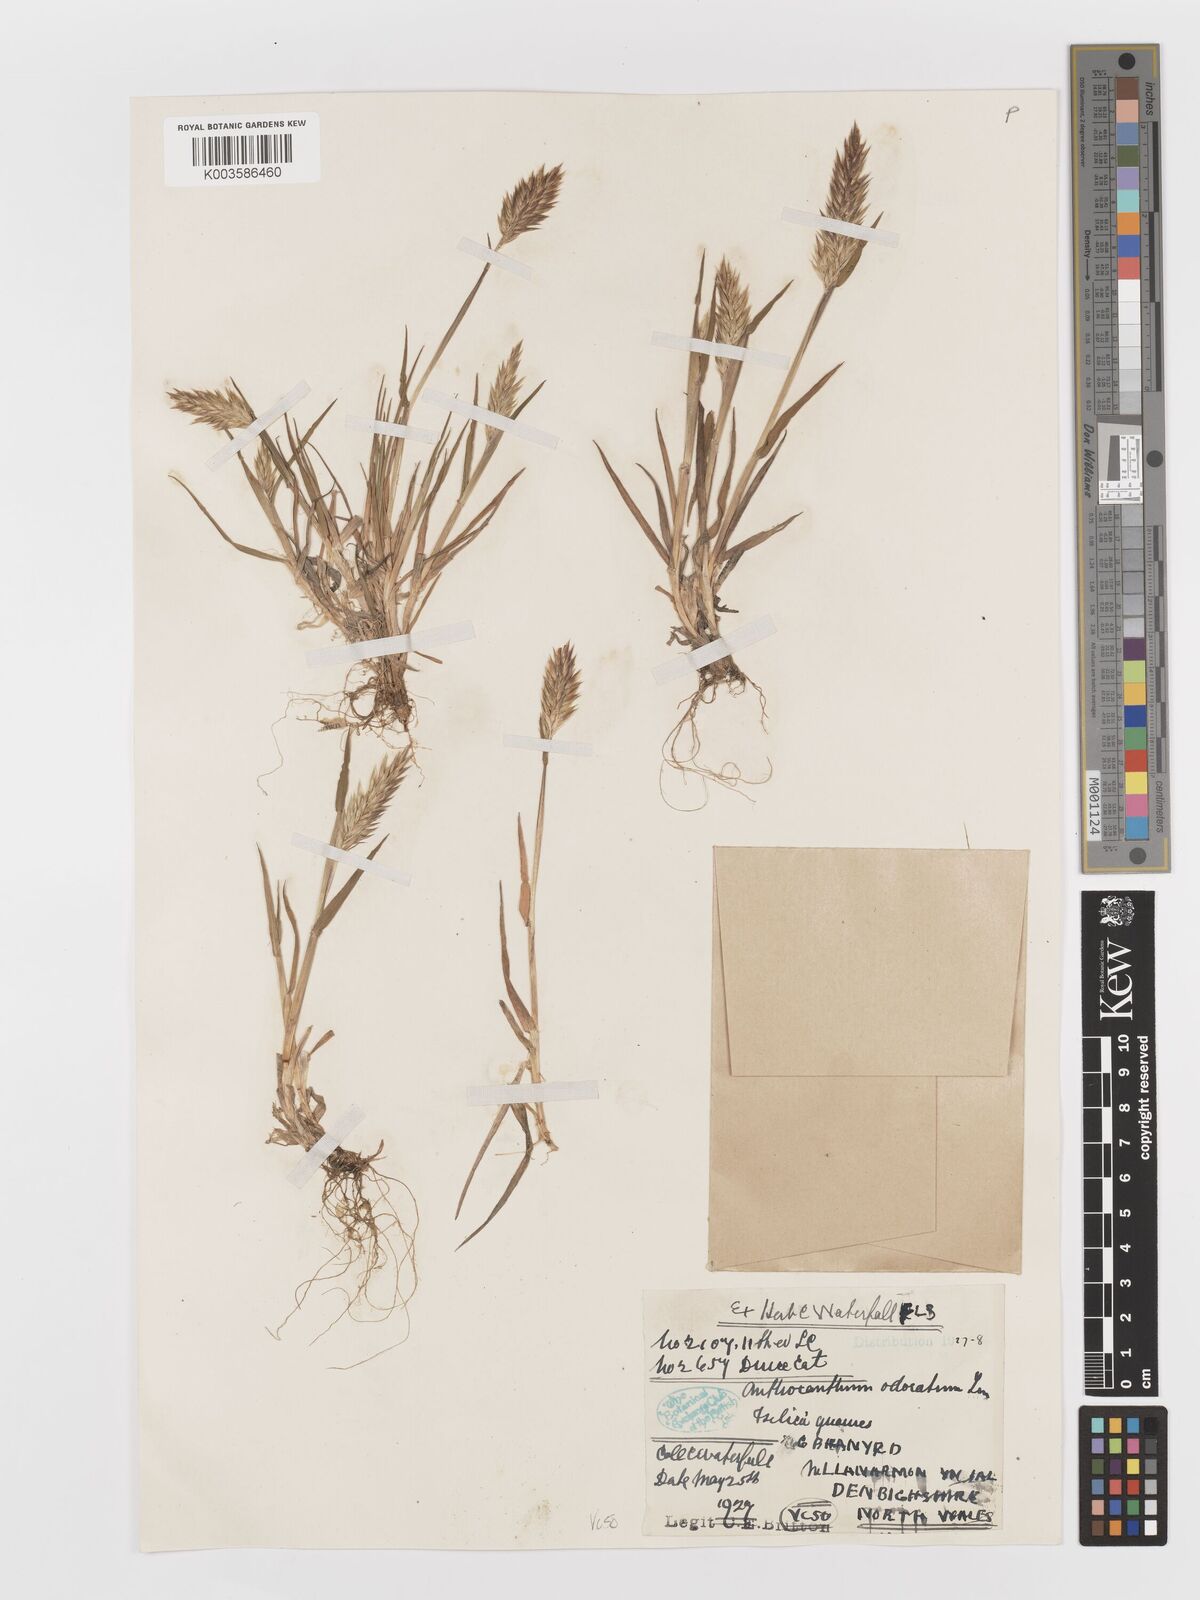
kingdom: Plantae
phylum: Tracheophyta
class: Liliopsida
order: Poales
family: Poaceae
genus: Anthoxanthum
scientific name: Anthoxanthum odoratum
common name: Sweet vernalgrass
